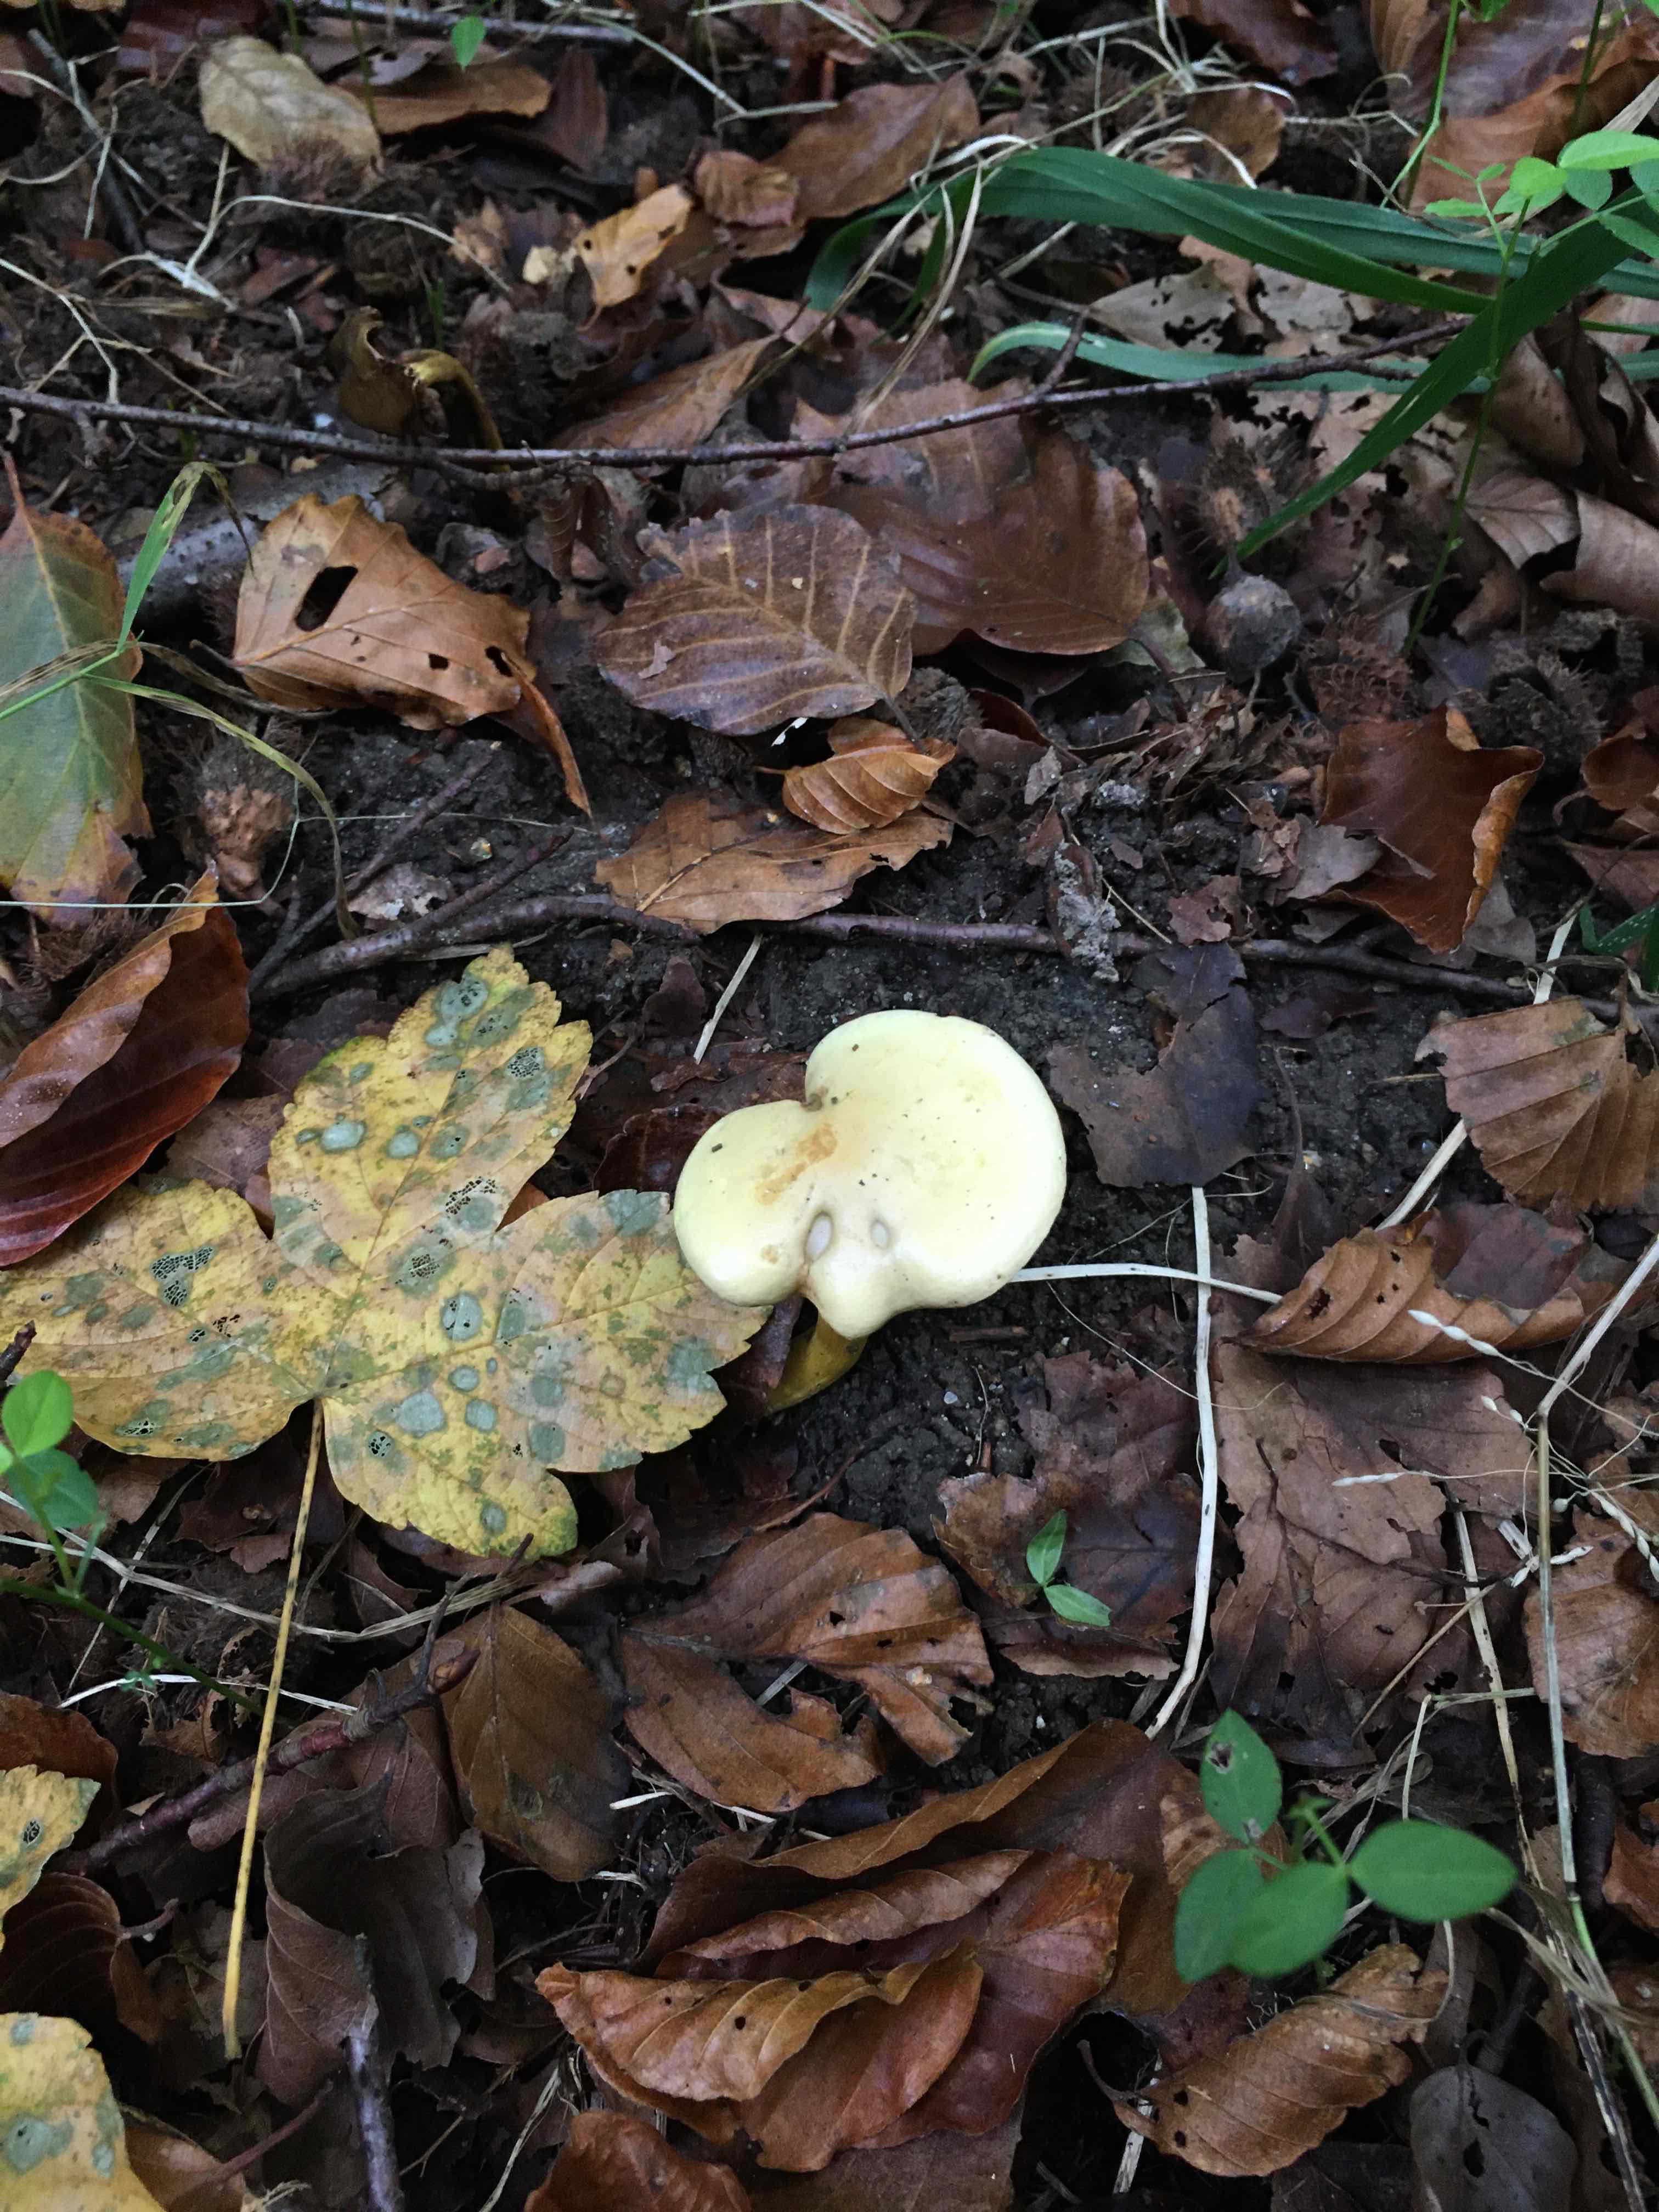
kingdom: Fungi
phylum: Basidiomycota
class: Agaricomycetes
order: Agaricales
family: Tricholomataceae
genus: Tricholoma
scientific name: Tricholoma sulphureum
